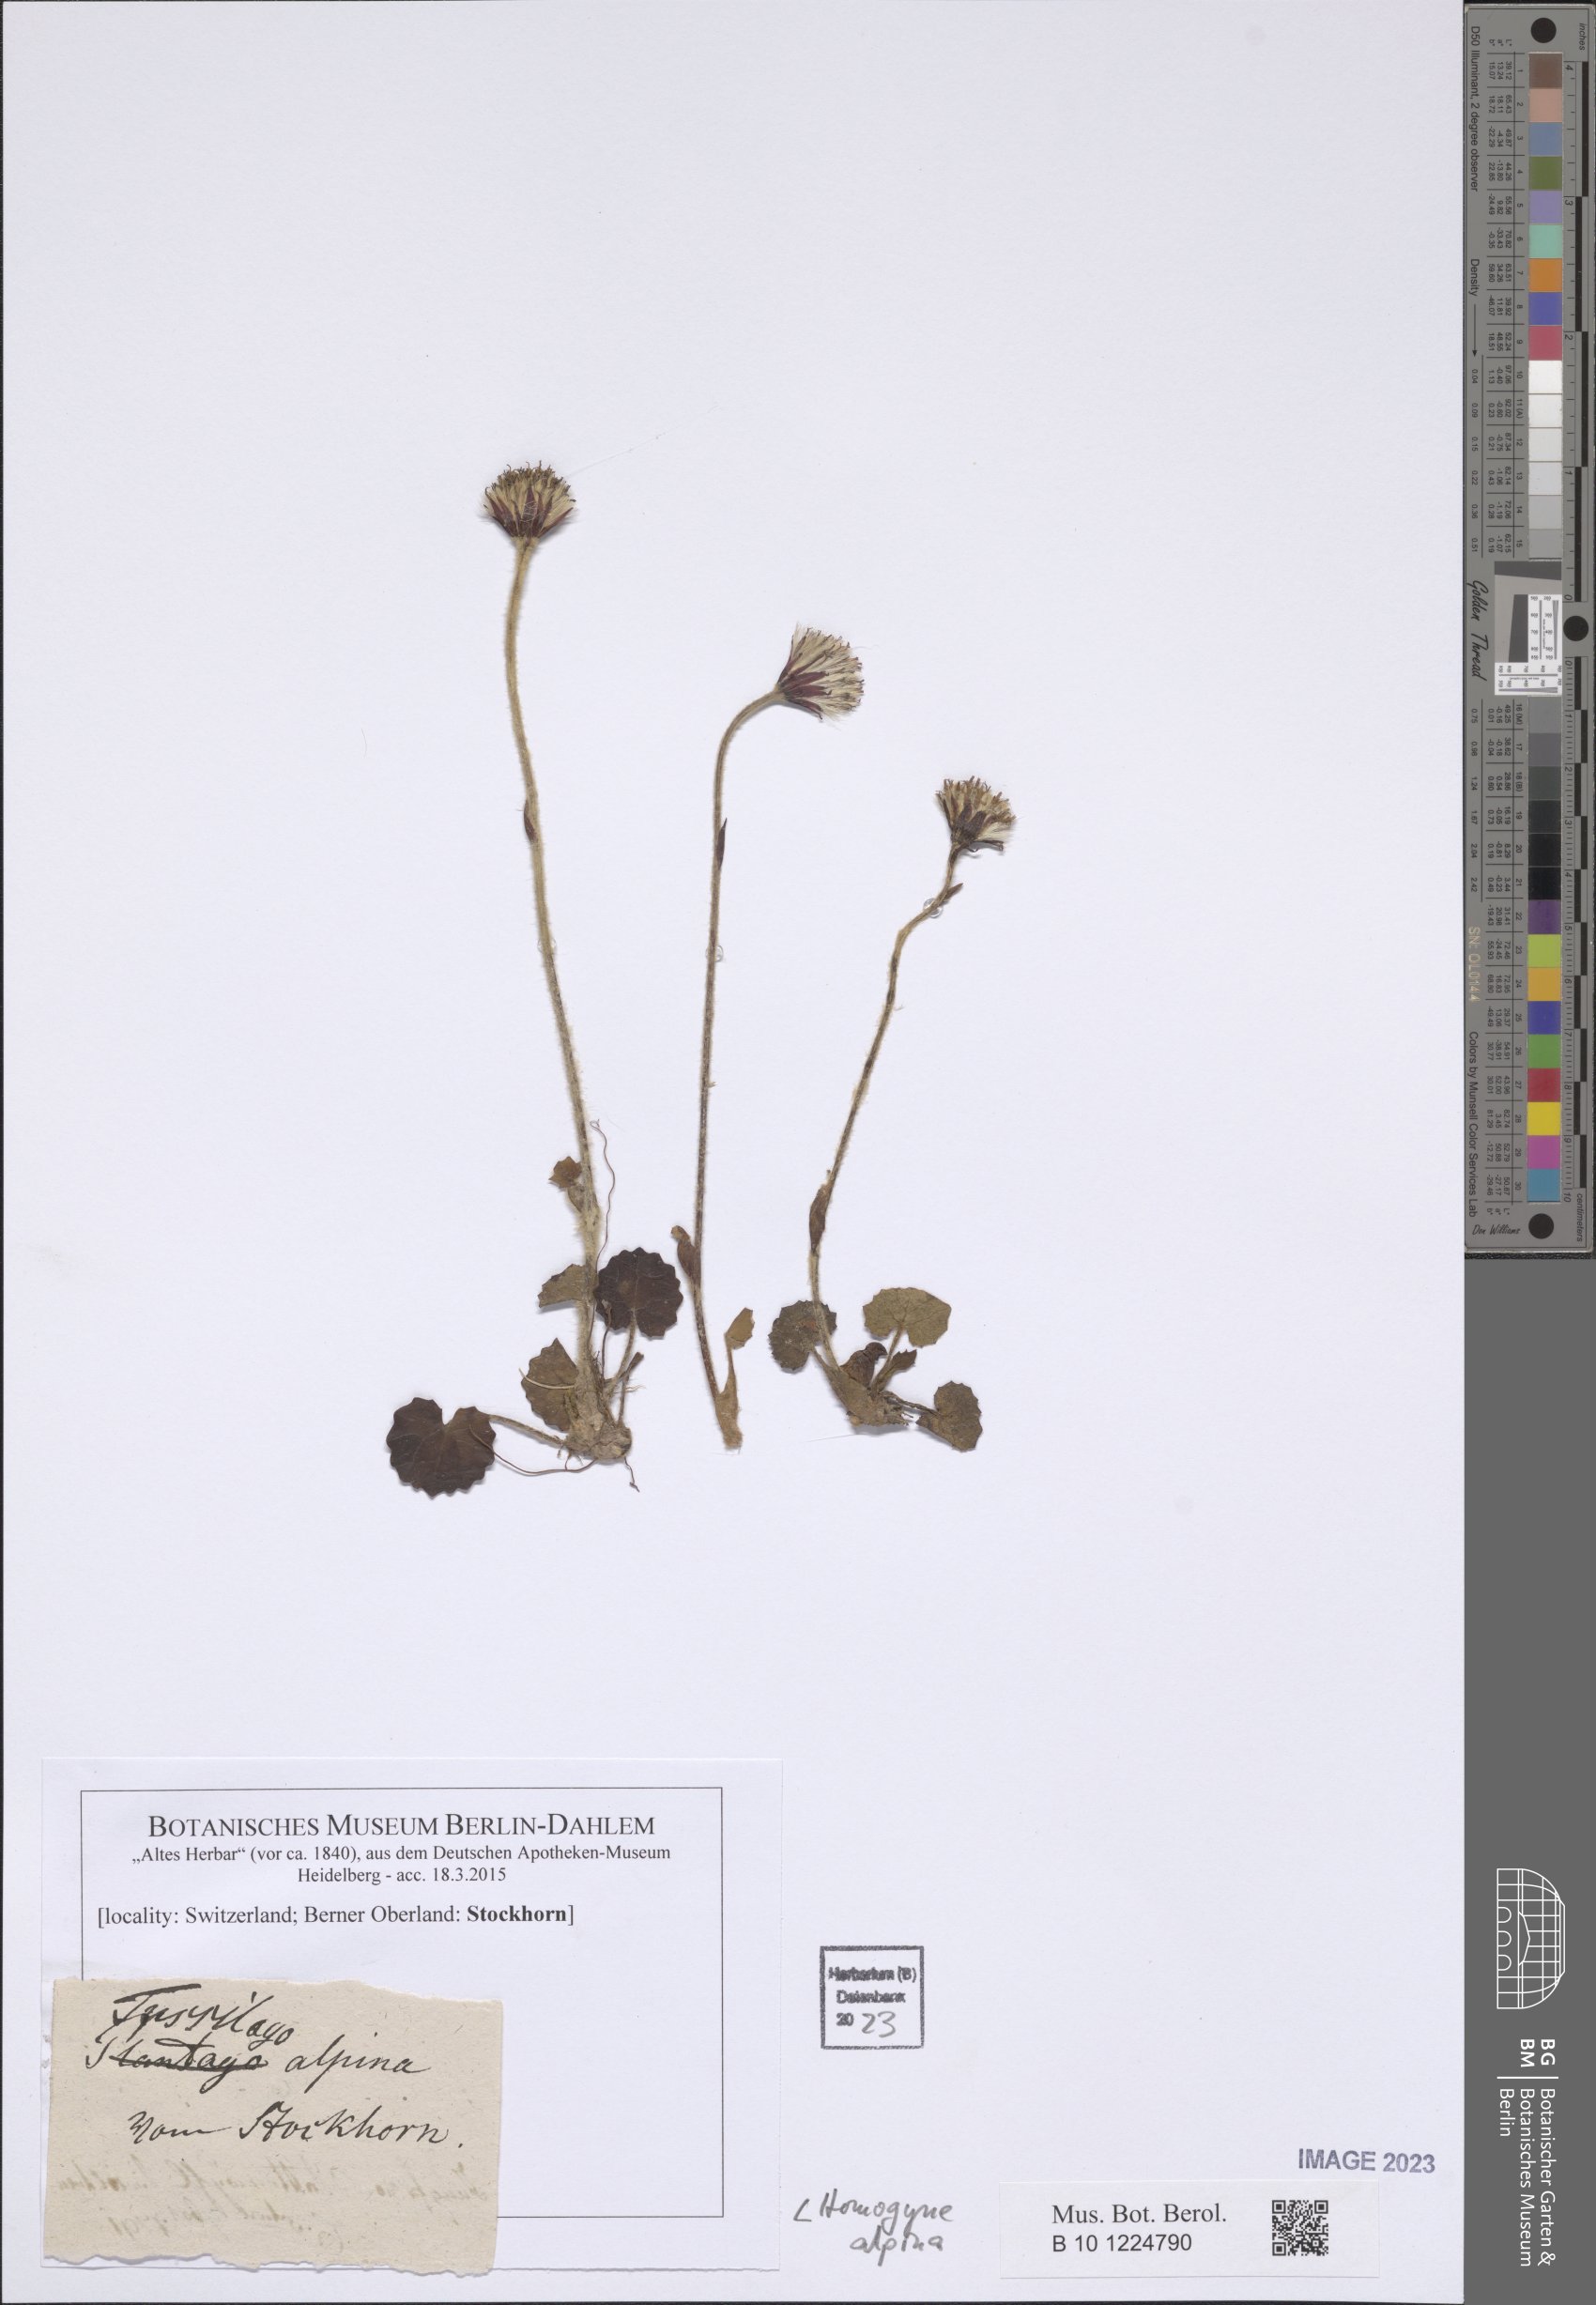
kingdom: Plantae
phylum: Tracheophyta
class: Magnoliopsida
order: Asterales
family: Asteraceae
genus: Homogyne
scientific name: Homogyne alpina
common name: Purple colt's-foot
